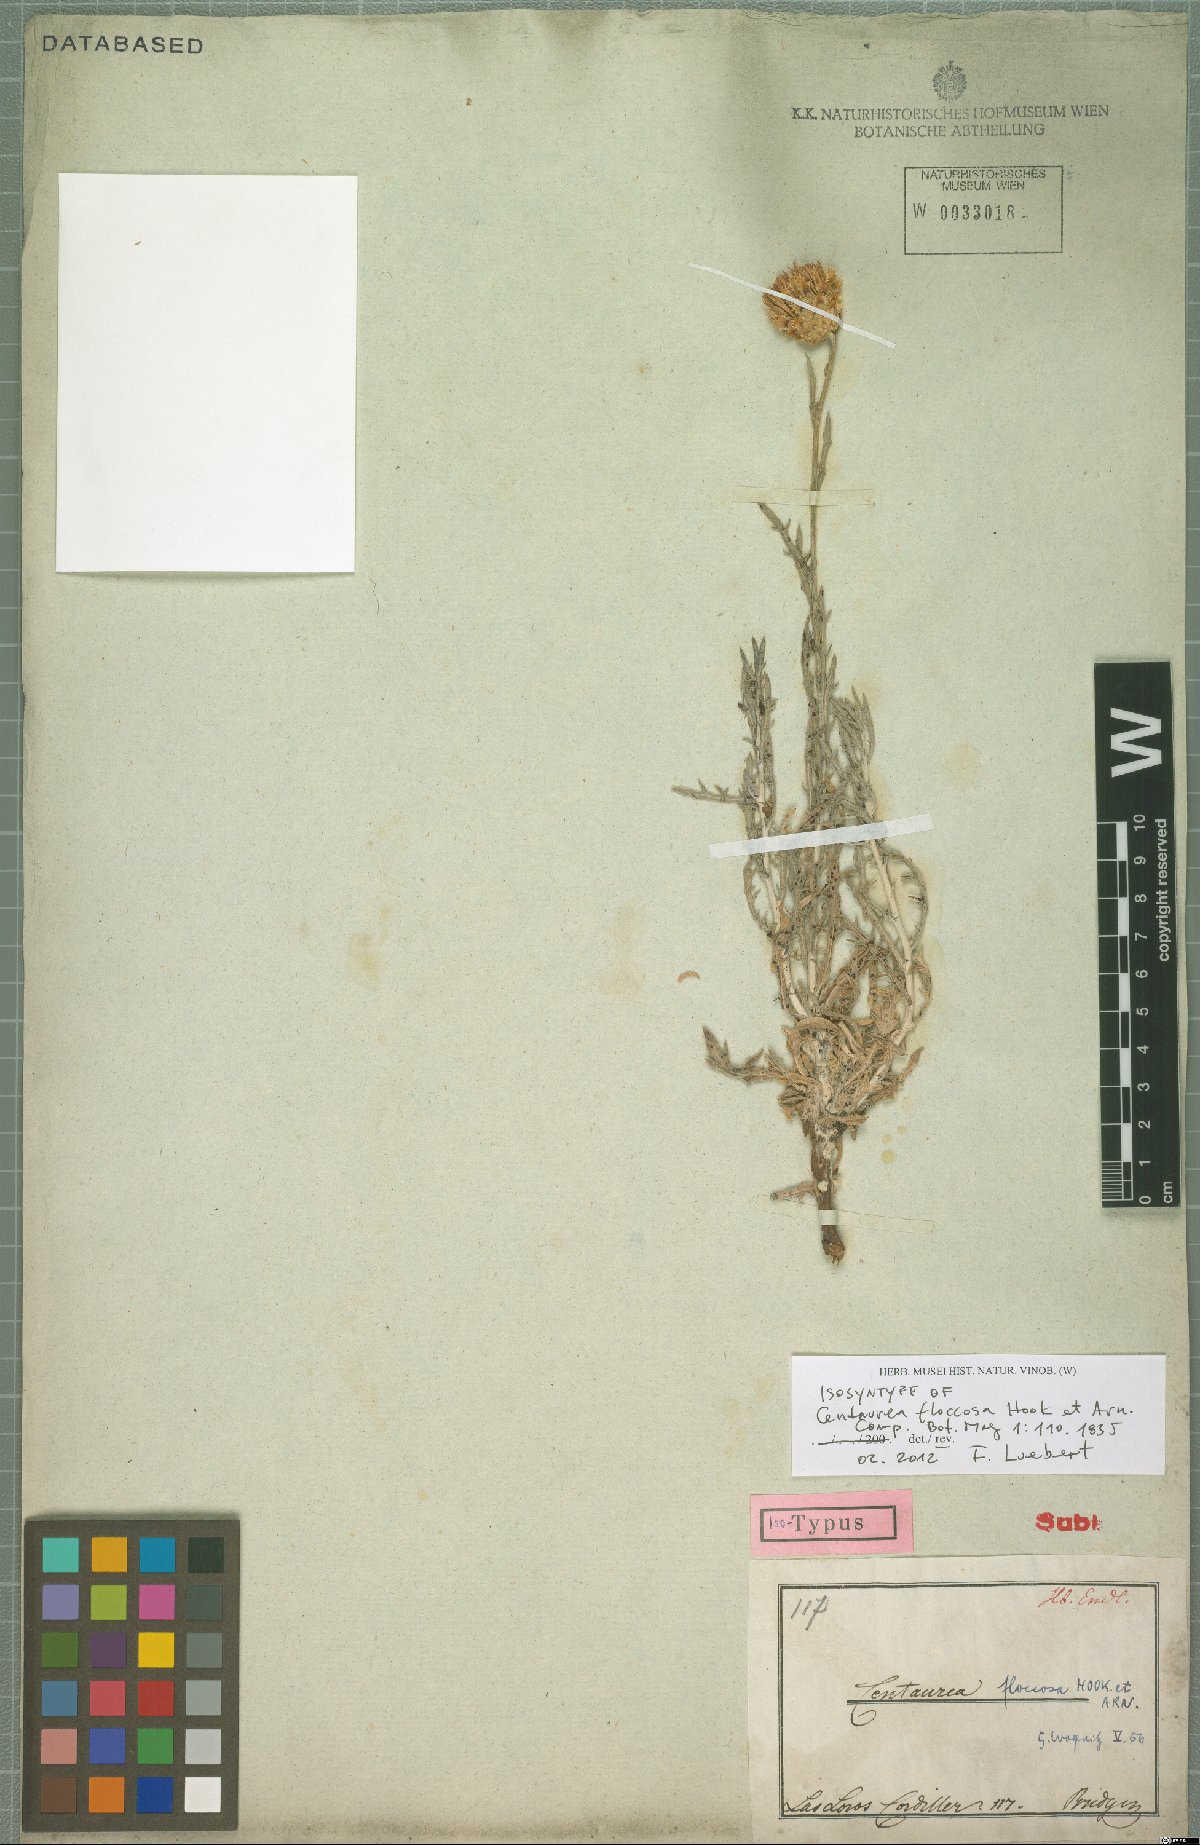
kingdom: Plantae
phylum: Tracheophyta
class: Magnoliopsida
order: Asterales
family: Asteraceae
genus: Plectocephalus
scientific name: Plectocephalus floccosus
